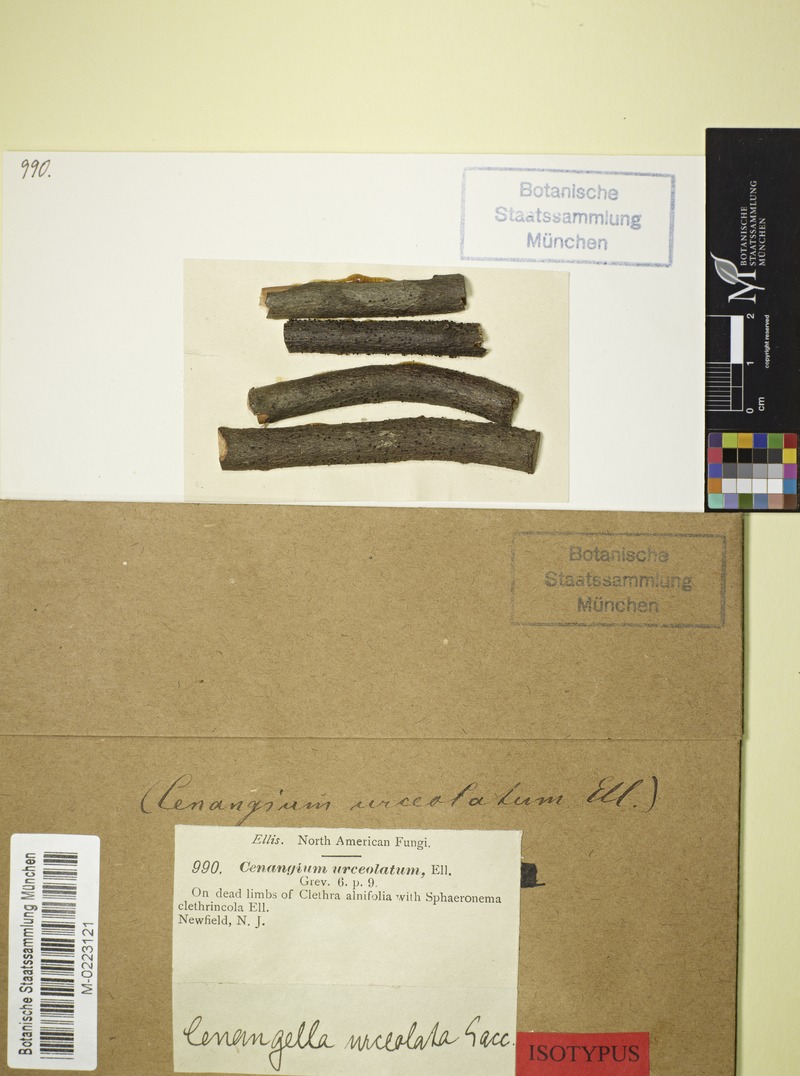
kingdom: Fungi
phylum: Ascomycota
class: Leotiomycetes
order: Helotiales
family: Godroniaceae
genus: Godronia
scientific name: Godronia
